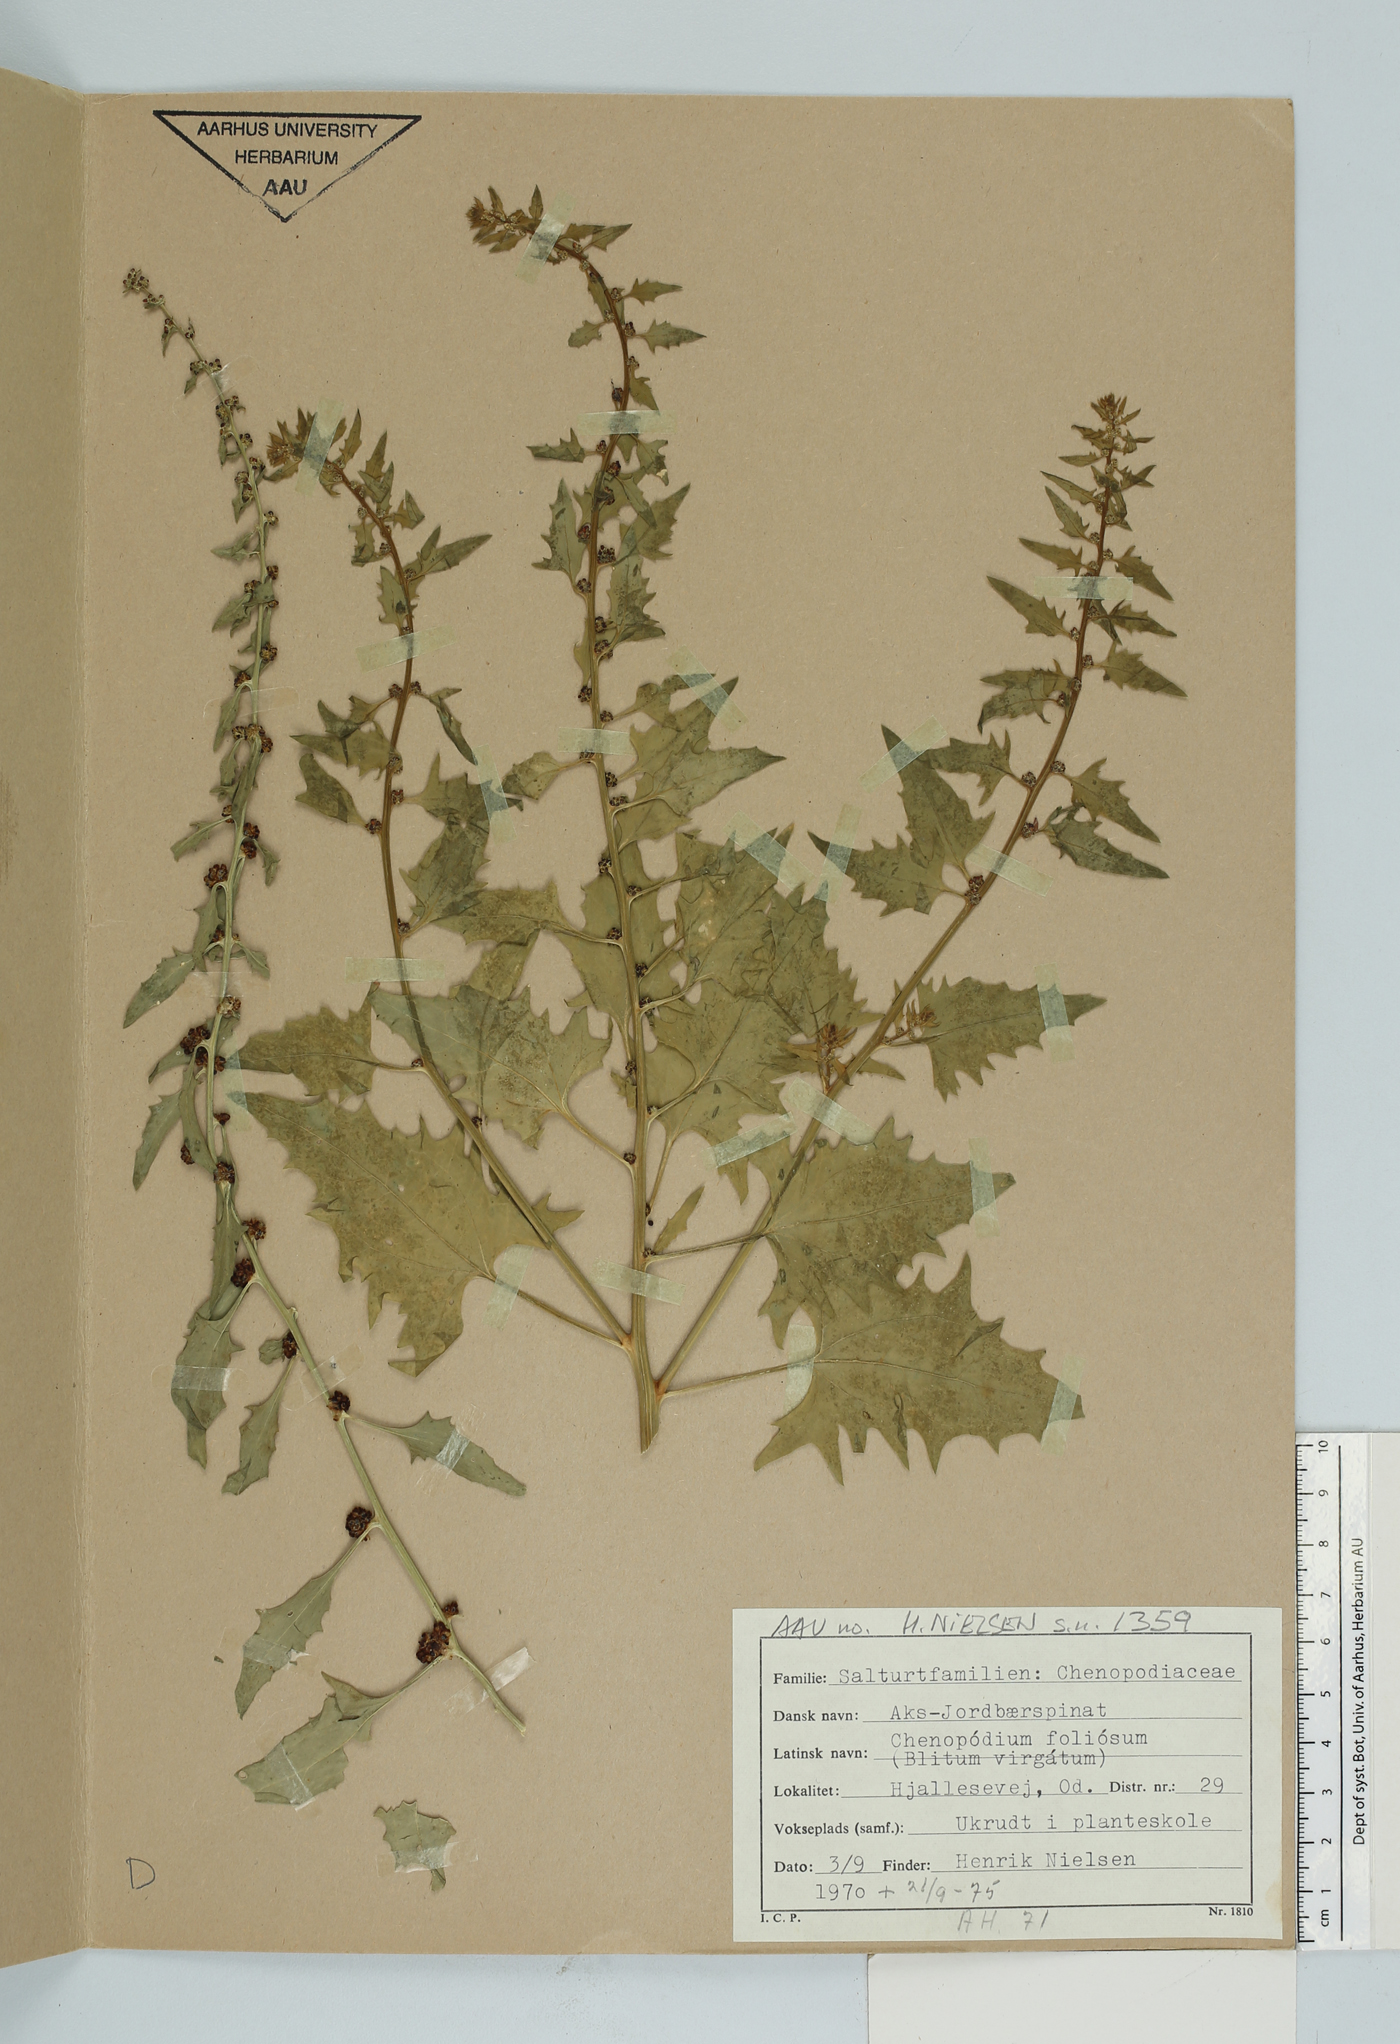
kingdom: Plantae
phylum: Tracheophyta
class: Magnoliopsida
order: Caryophyllales
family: Amaranthaceae
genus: Blitum
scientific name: Blitum virgatum
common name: Strawberry goosefoot
